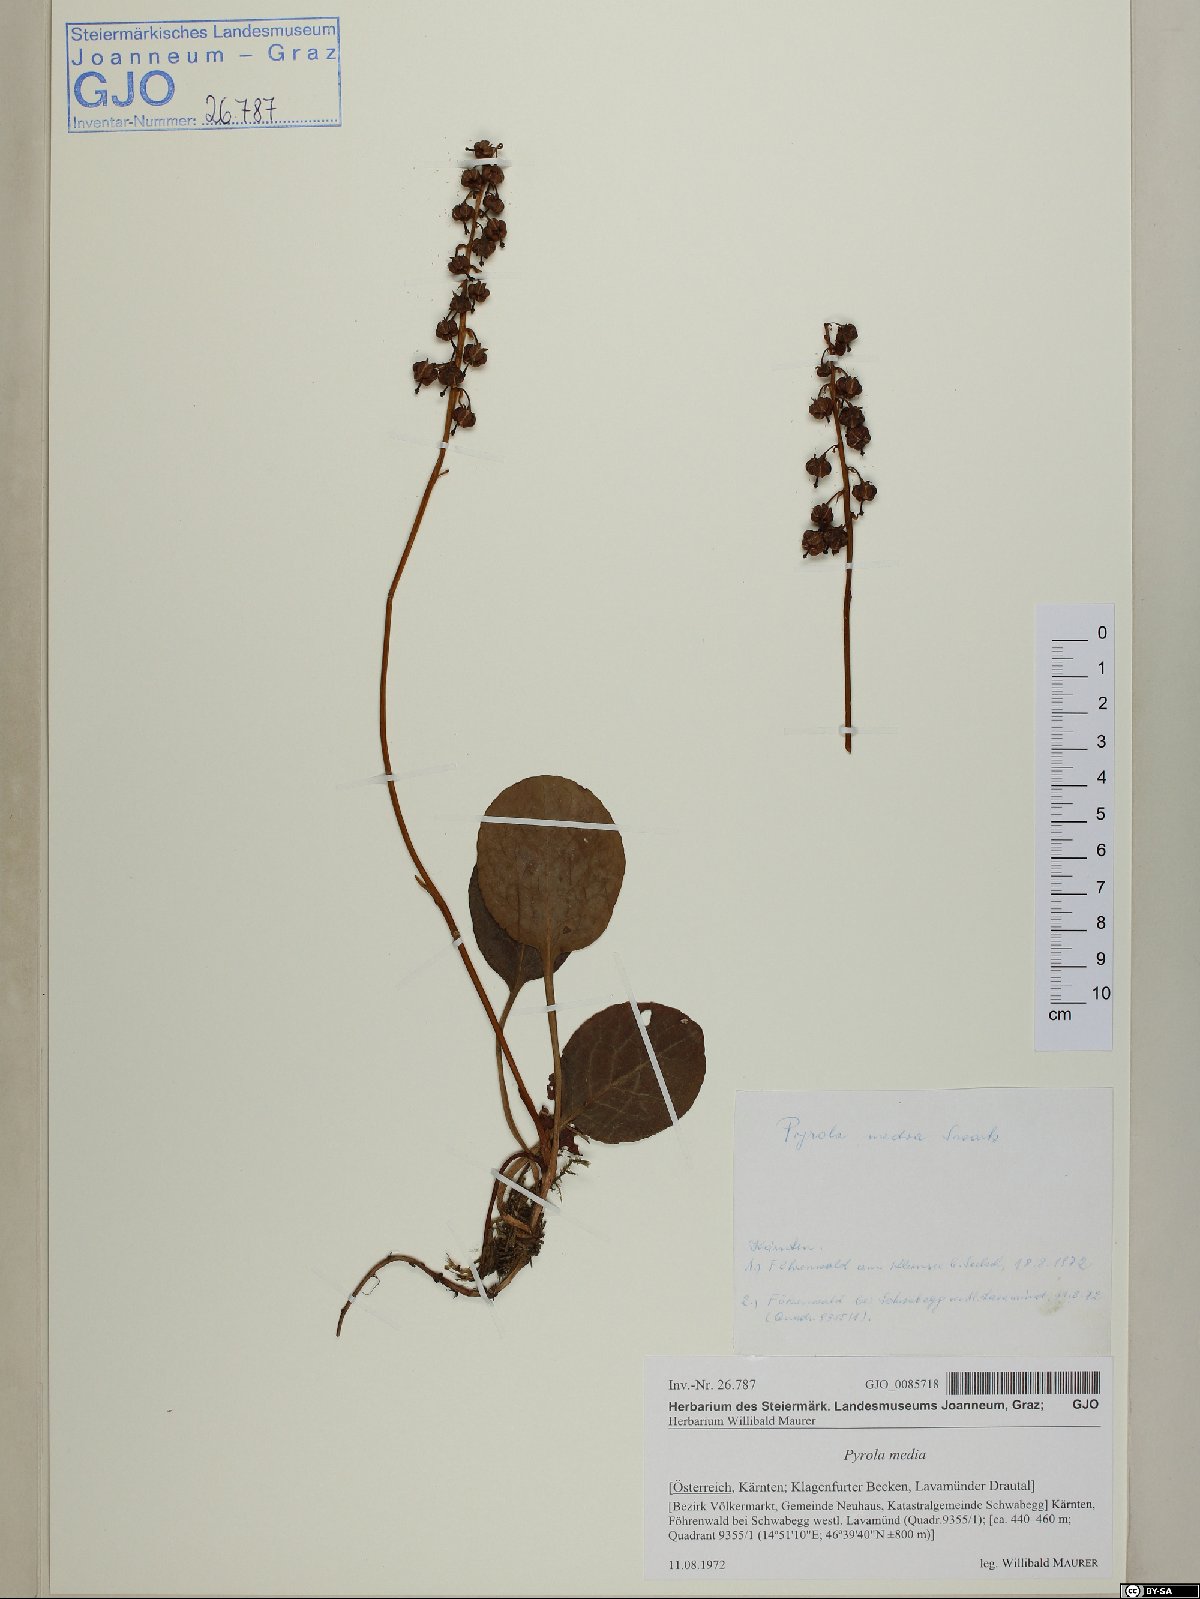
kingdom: Plantae
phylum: Tracheophyta
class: Magnoliopsida
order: Ericales
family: Ericaceae
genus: Pyrola
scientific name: Pyrola media
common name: Intermediate wintergreen
